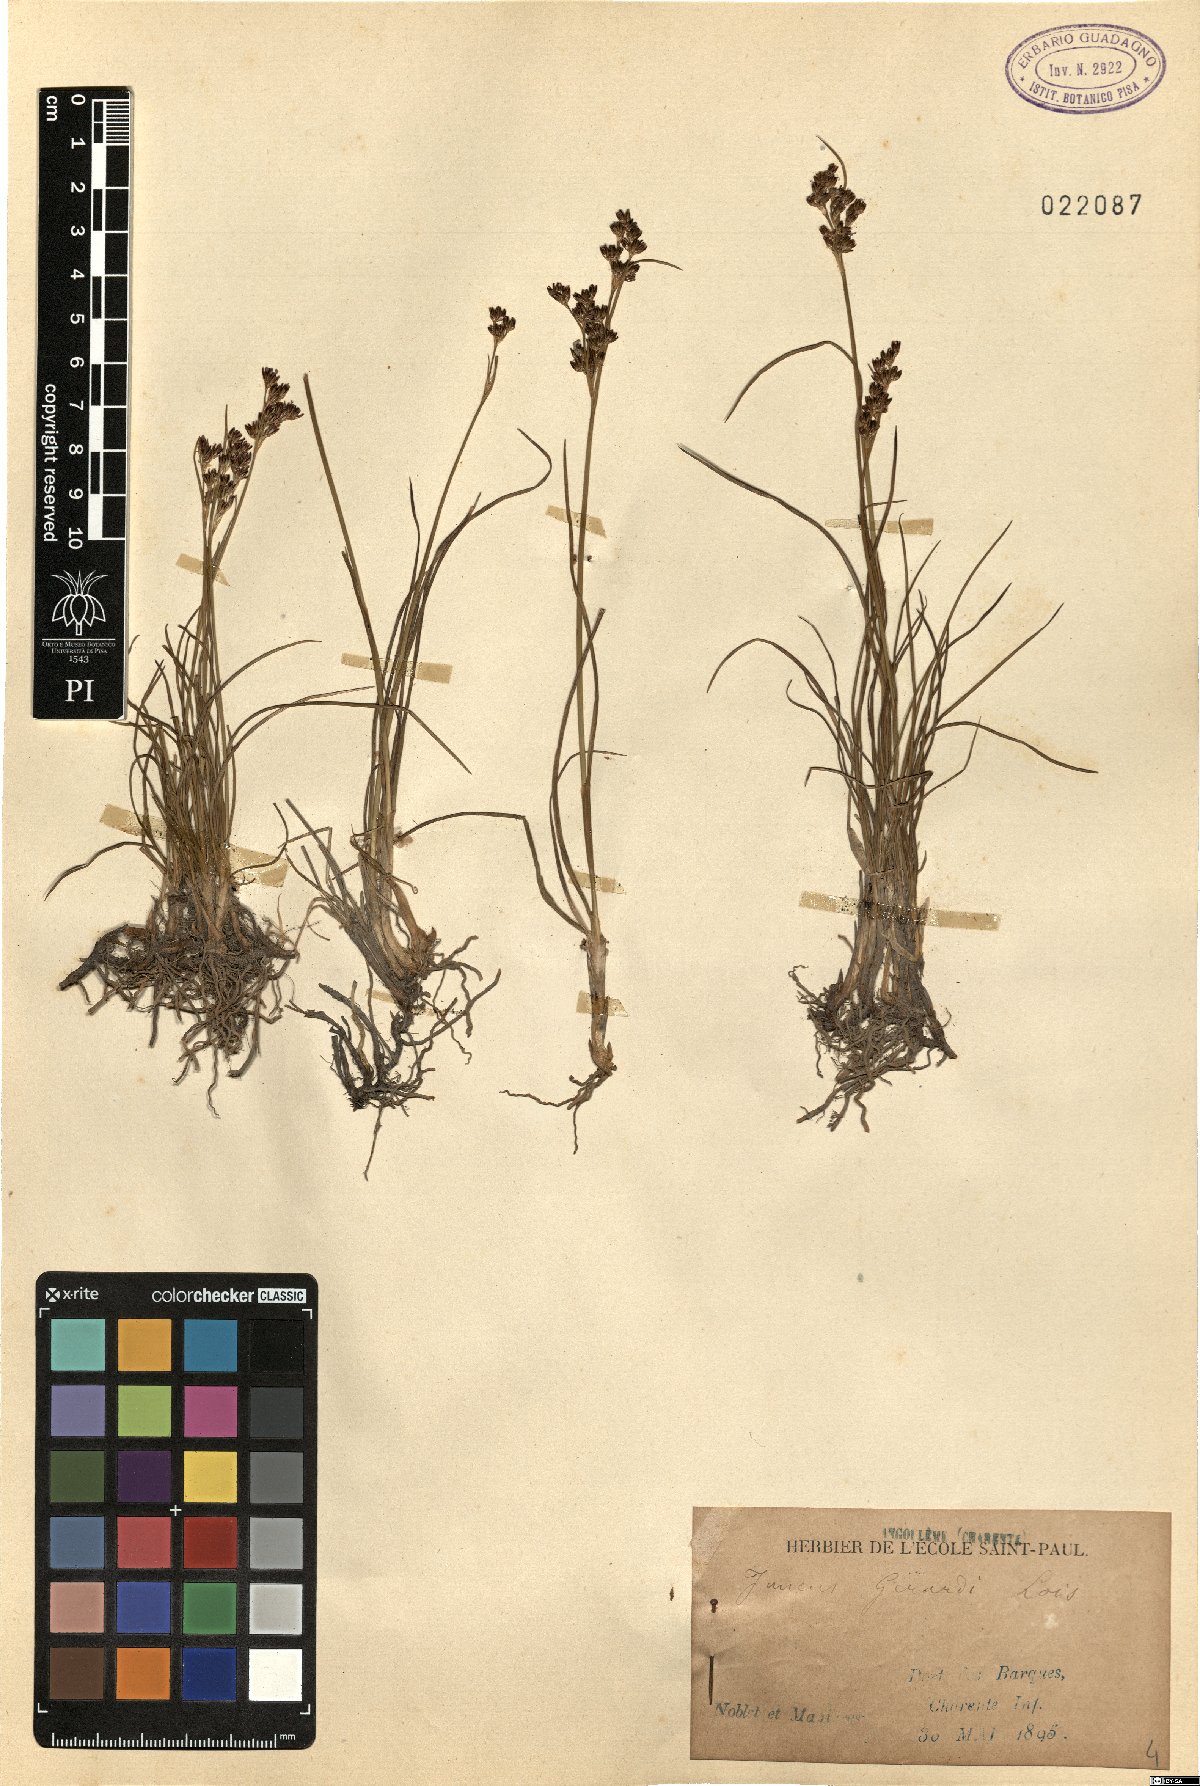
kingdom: Plantae
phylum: Tracheophyta
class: Liliopsida
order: Poales
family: Juncaceae
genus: Juncus
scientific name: Juncus gerardi
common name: Saltmarsh rush
